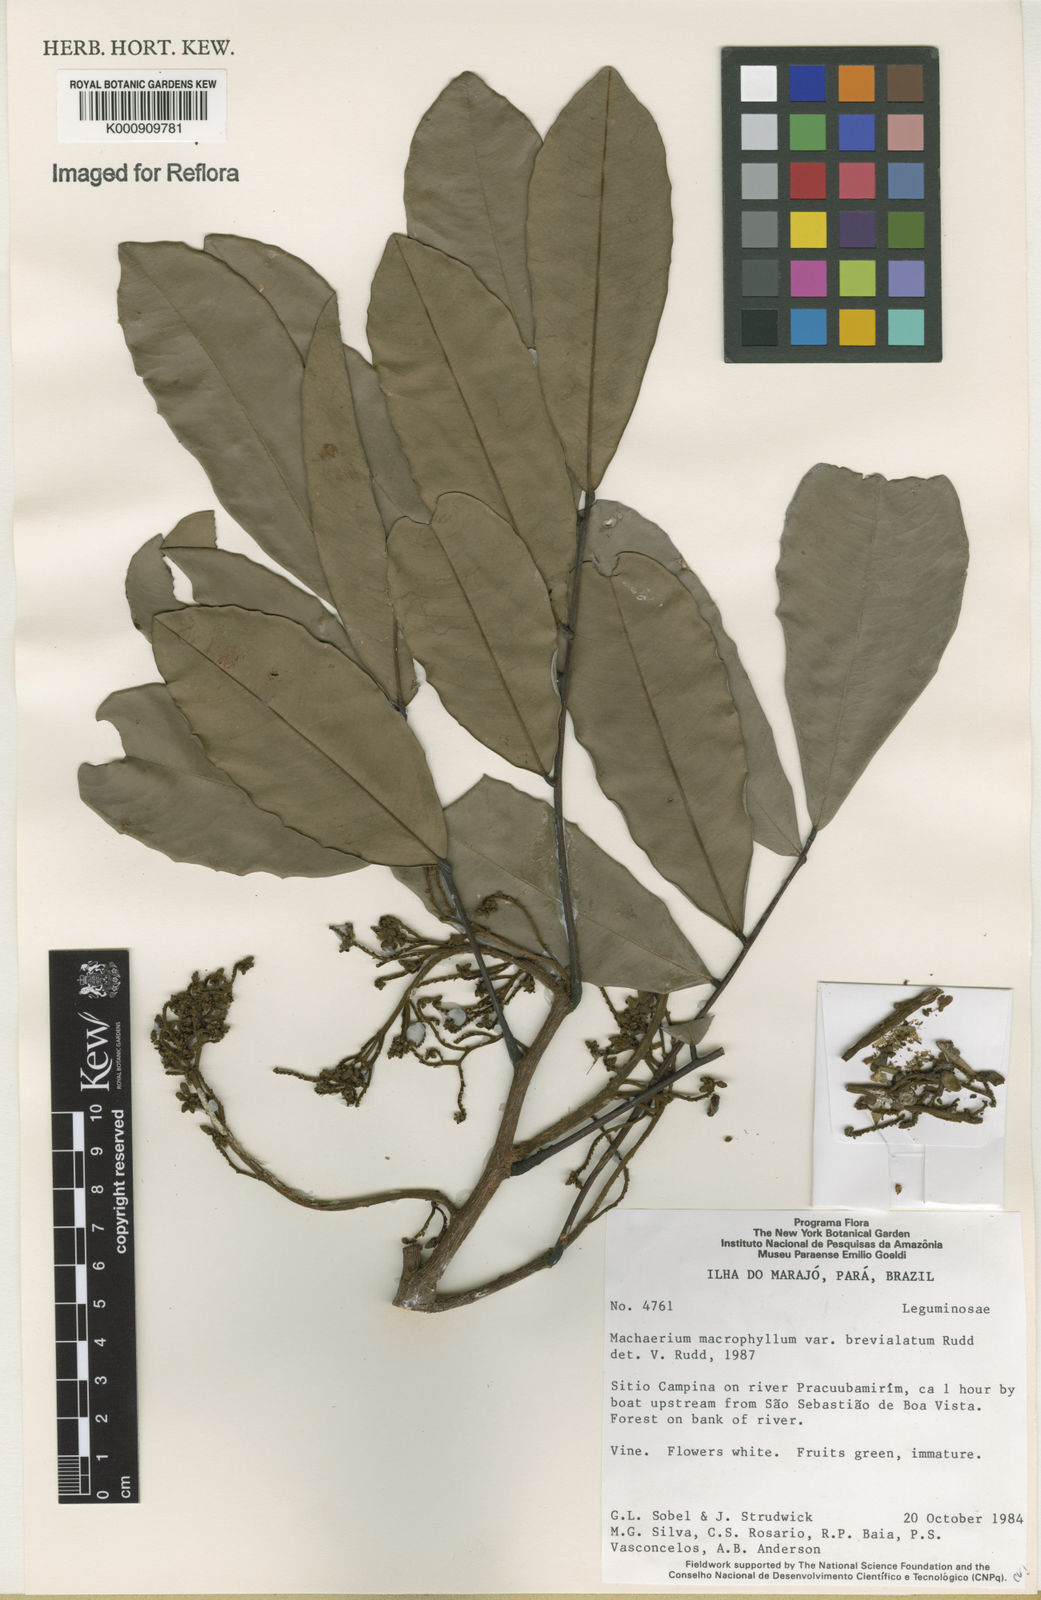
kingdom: Plantae
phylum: Tracheophyta
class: Magnoliopsida
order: Fabales
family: Fabaceae
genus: Machaerium
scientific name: Machaerium macrophyllum
